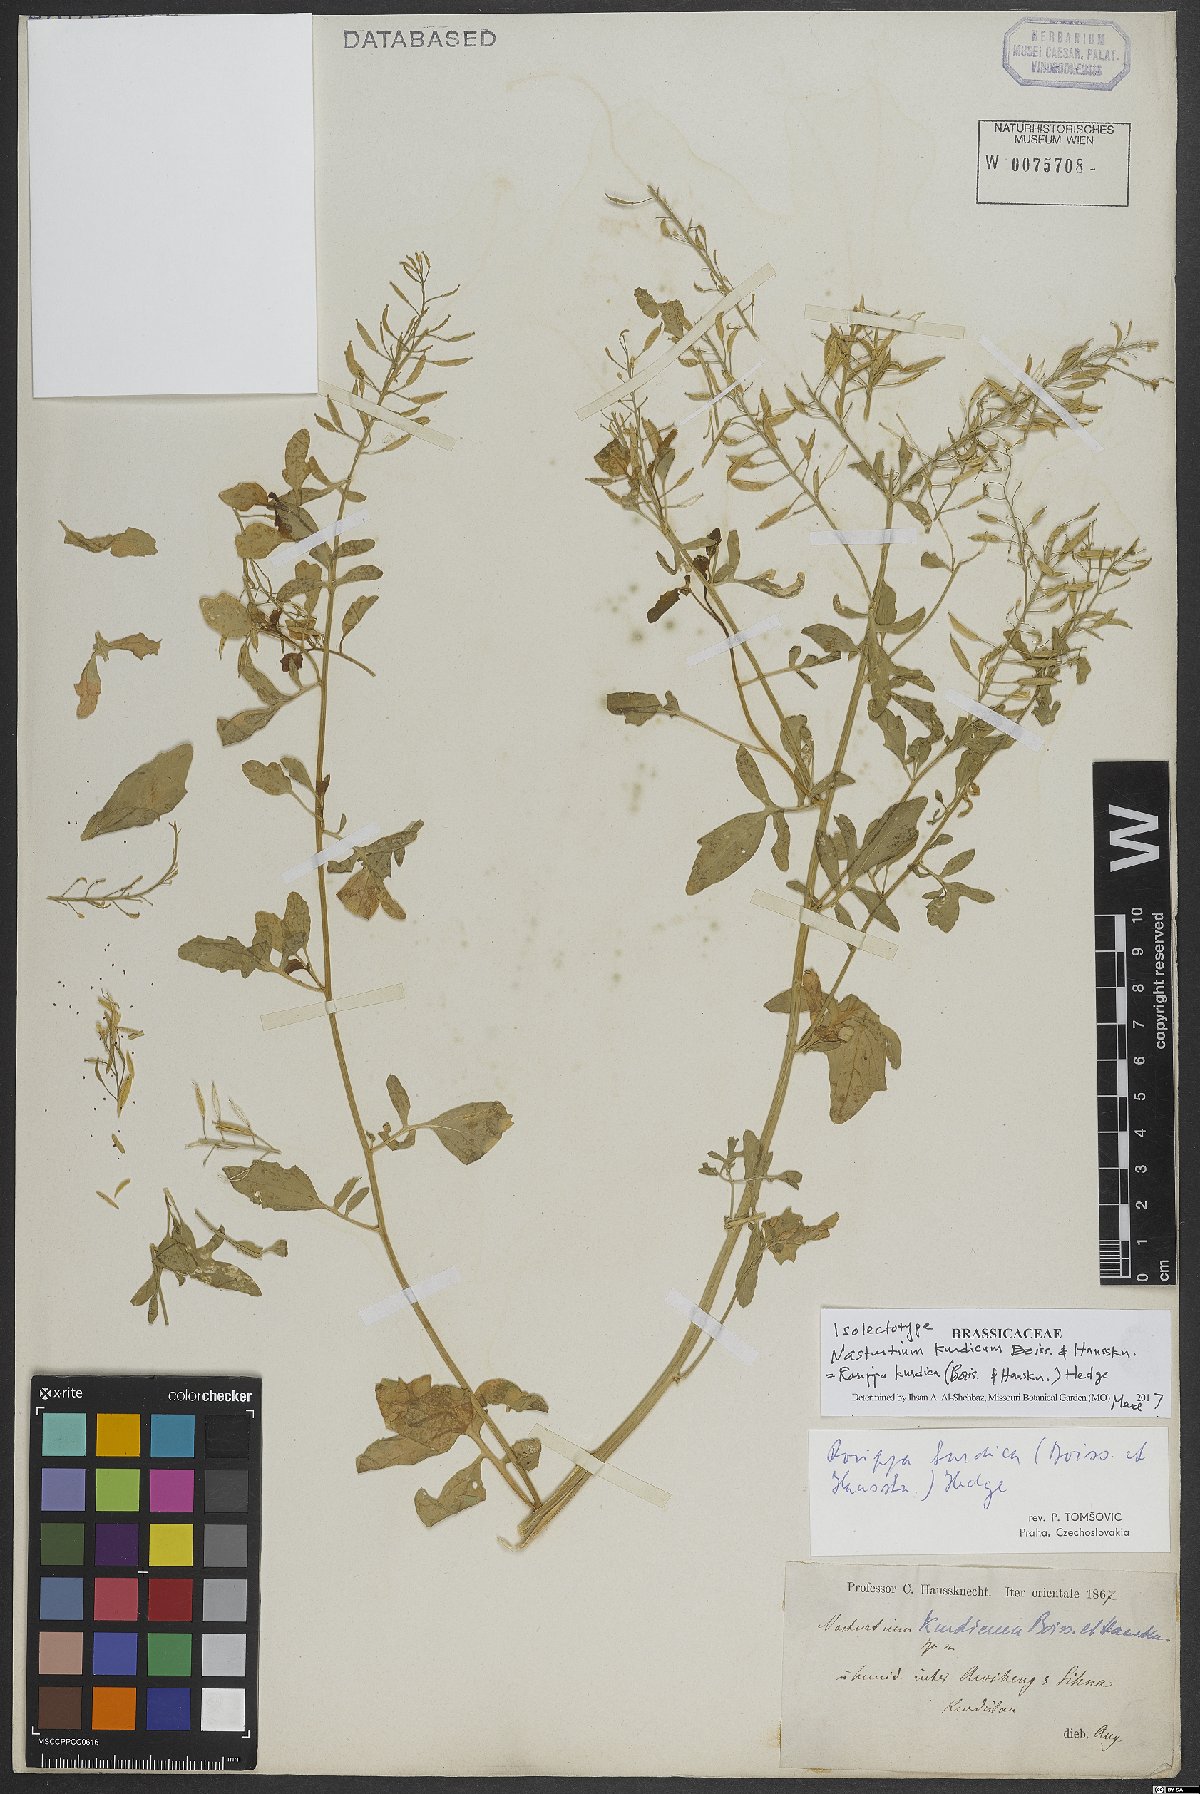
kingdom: Plantae
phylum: Tracheophyta
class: Magnoliopsida
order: Brassicales
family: Brassicaceae
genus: Rorippa
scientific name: Rorippa kurdica
